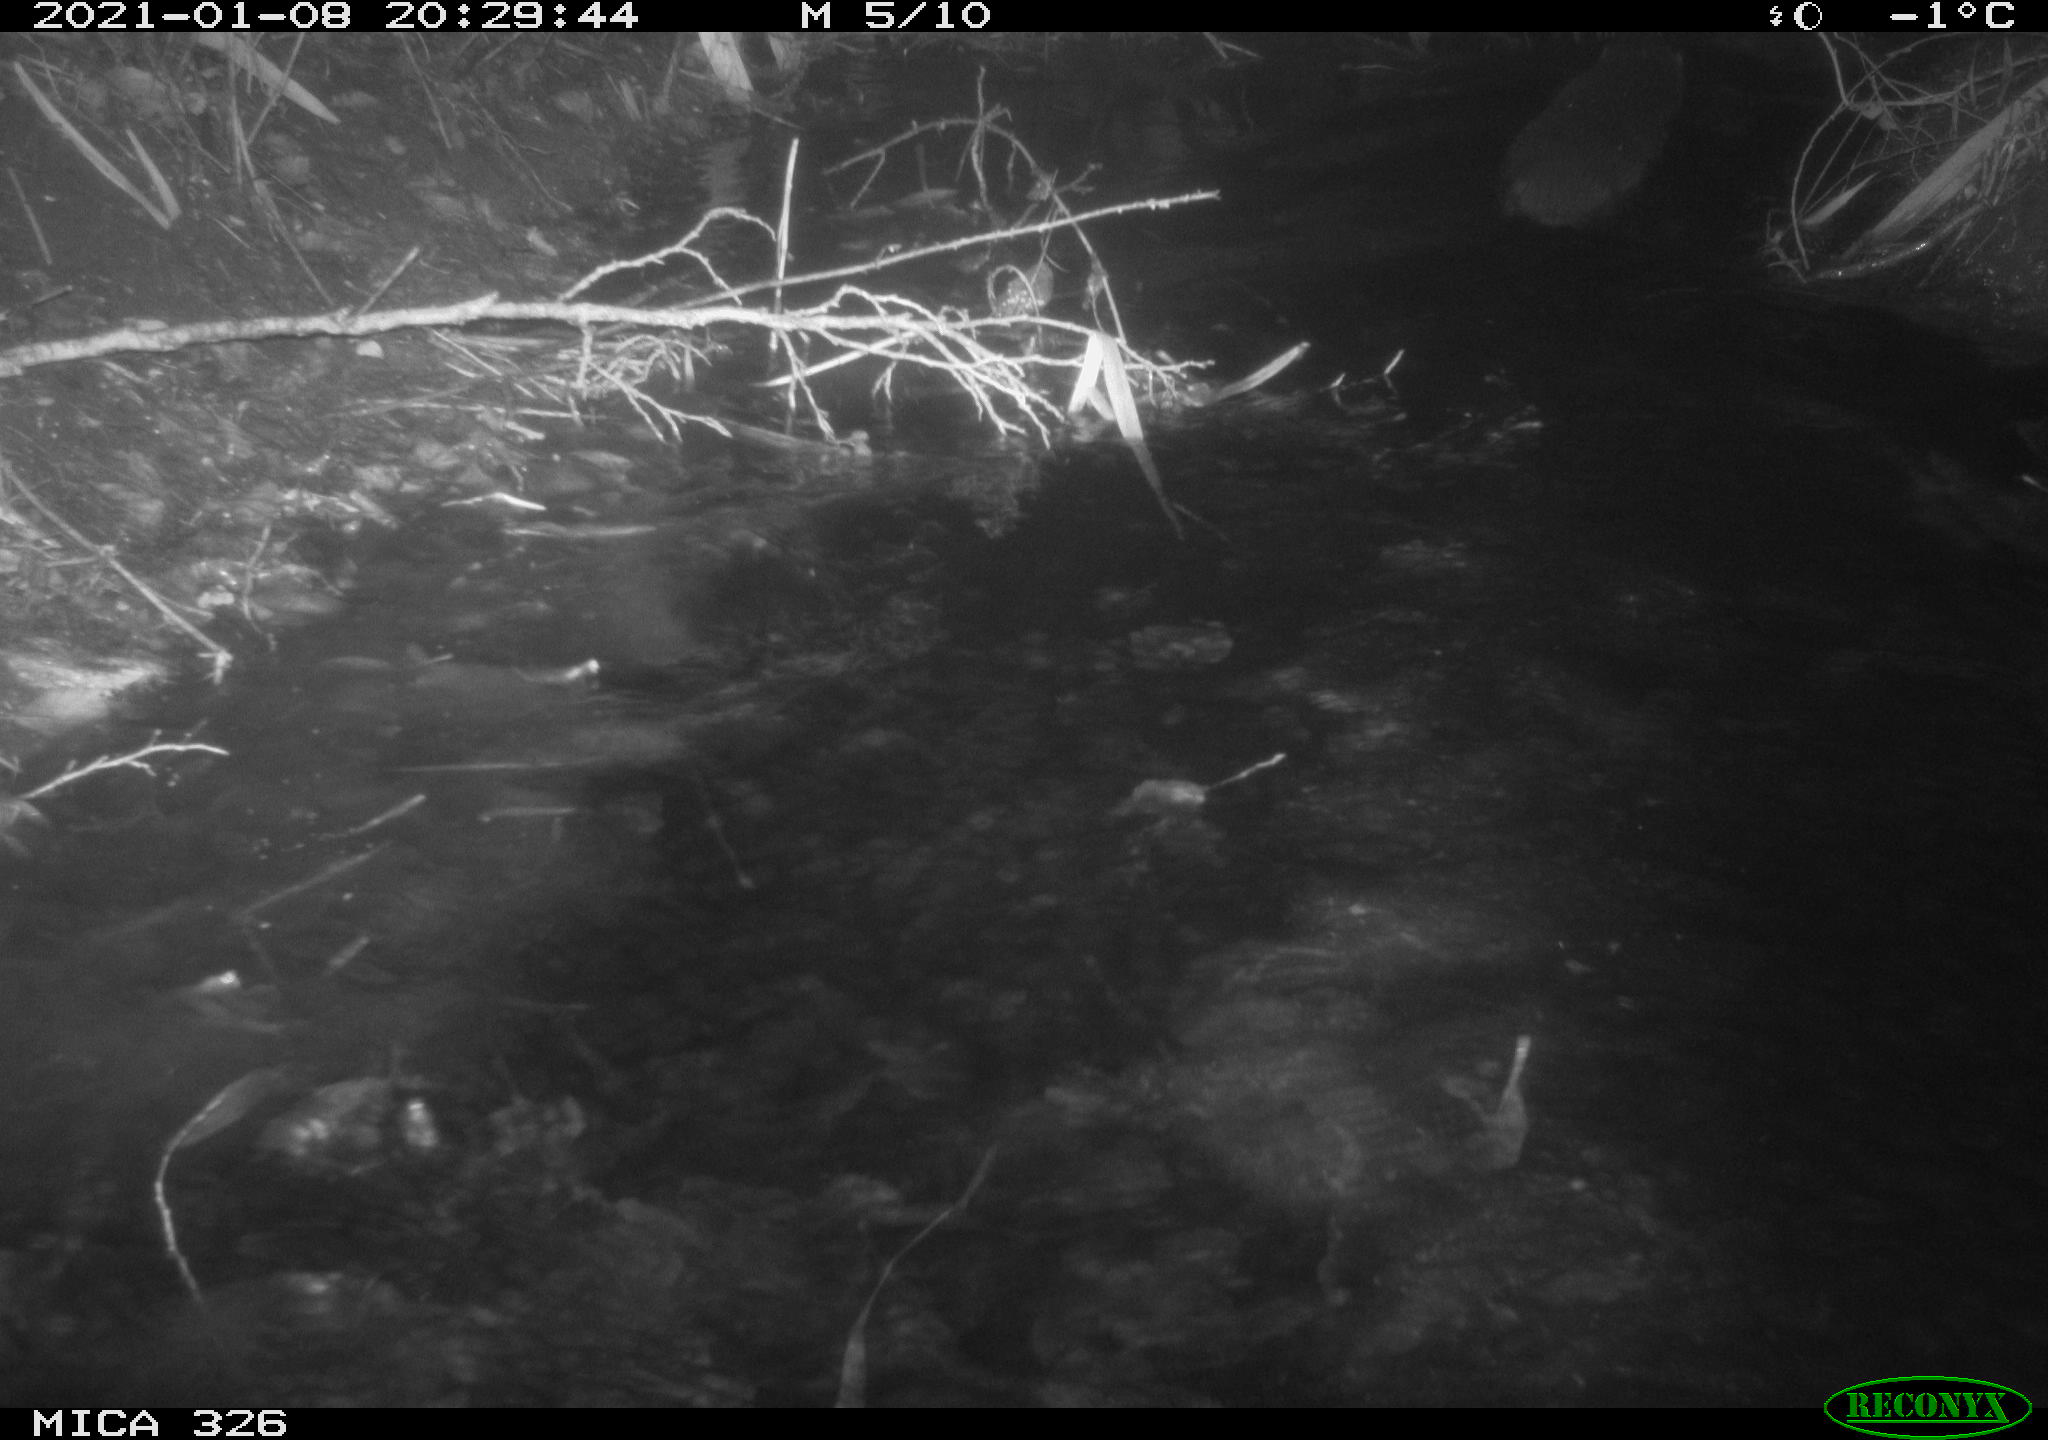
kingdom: Animalia
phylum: Chordata
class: Mammalia
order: Carnivora
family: Mustelidae
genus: Lutra
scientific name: Lutra lutra
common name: European otter
